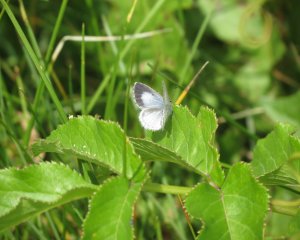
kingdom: Animalia
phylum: Arthropoda
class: Insecta
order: Lepidoptera
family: Lycaenidae
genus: Cyaniris
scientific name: Cyaniris neglecta
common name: Summer Azure
